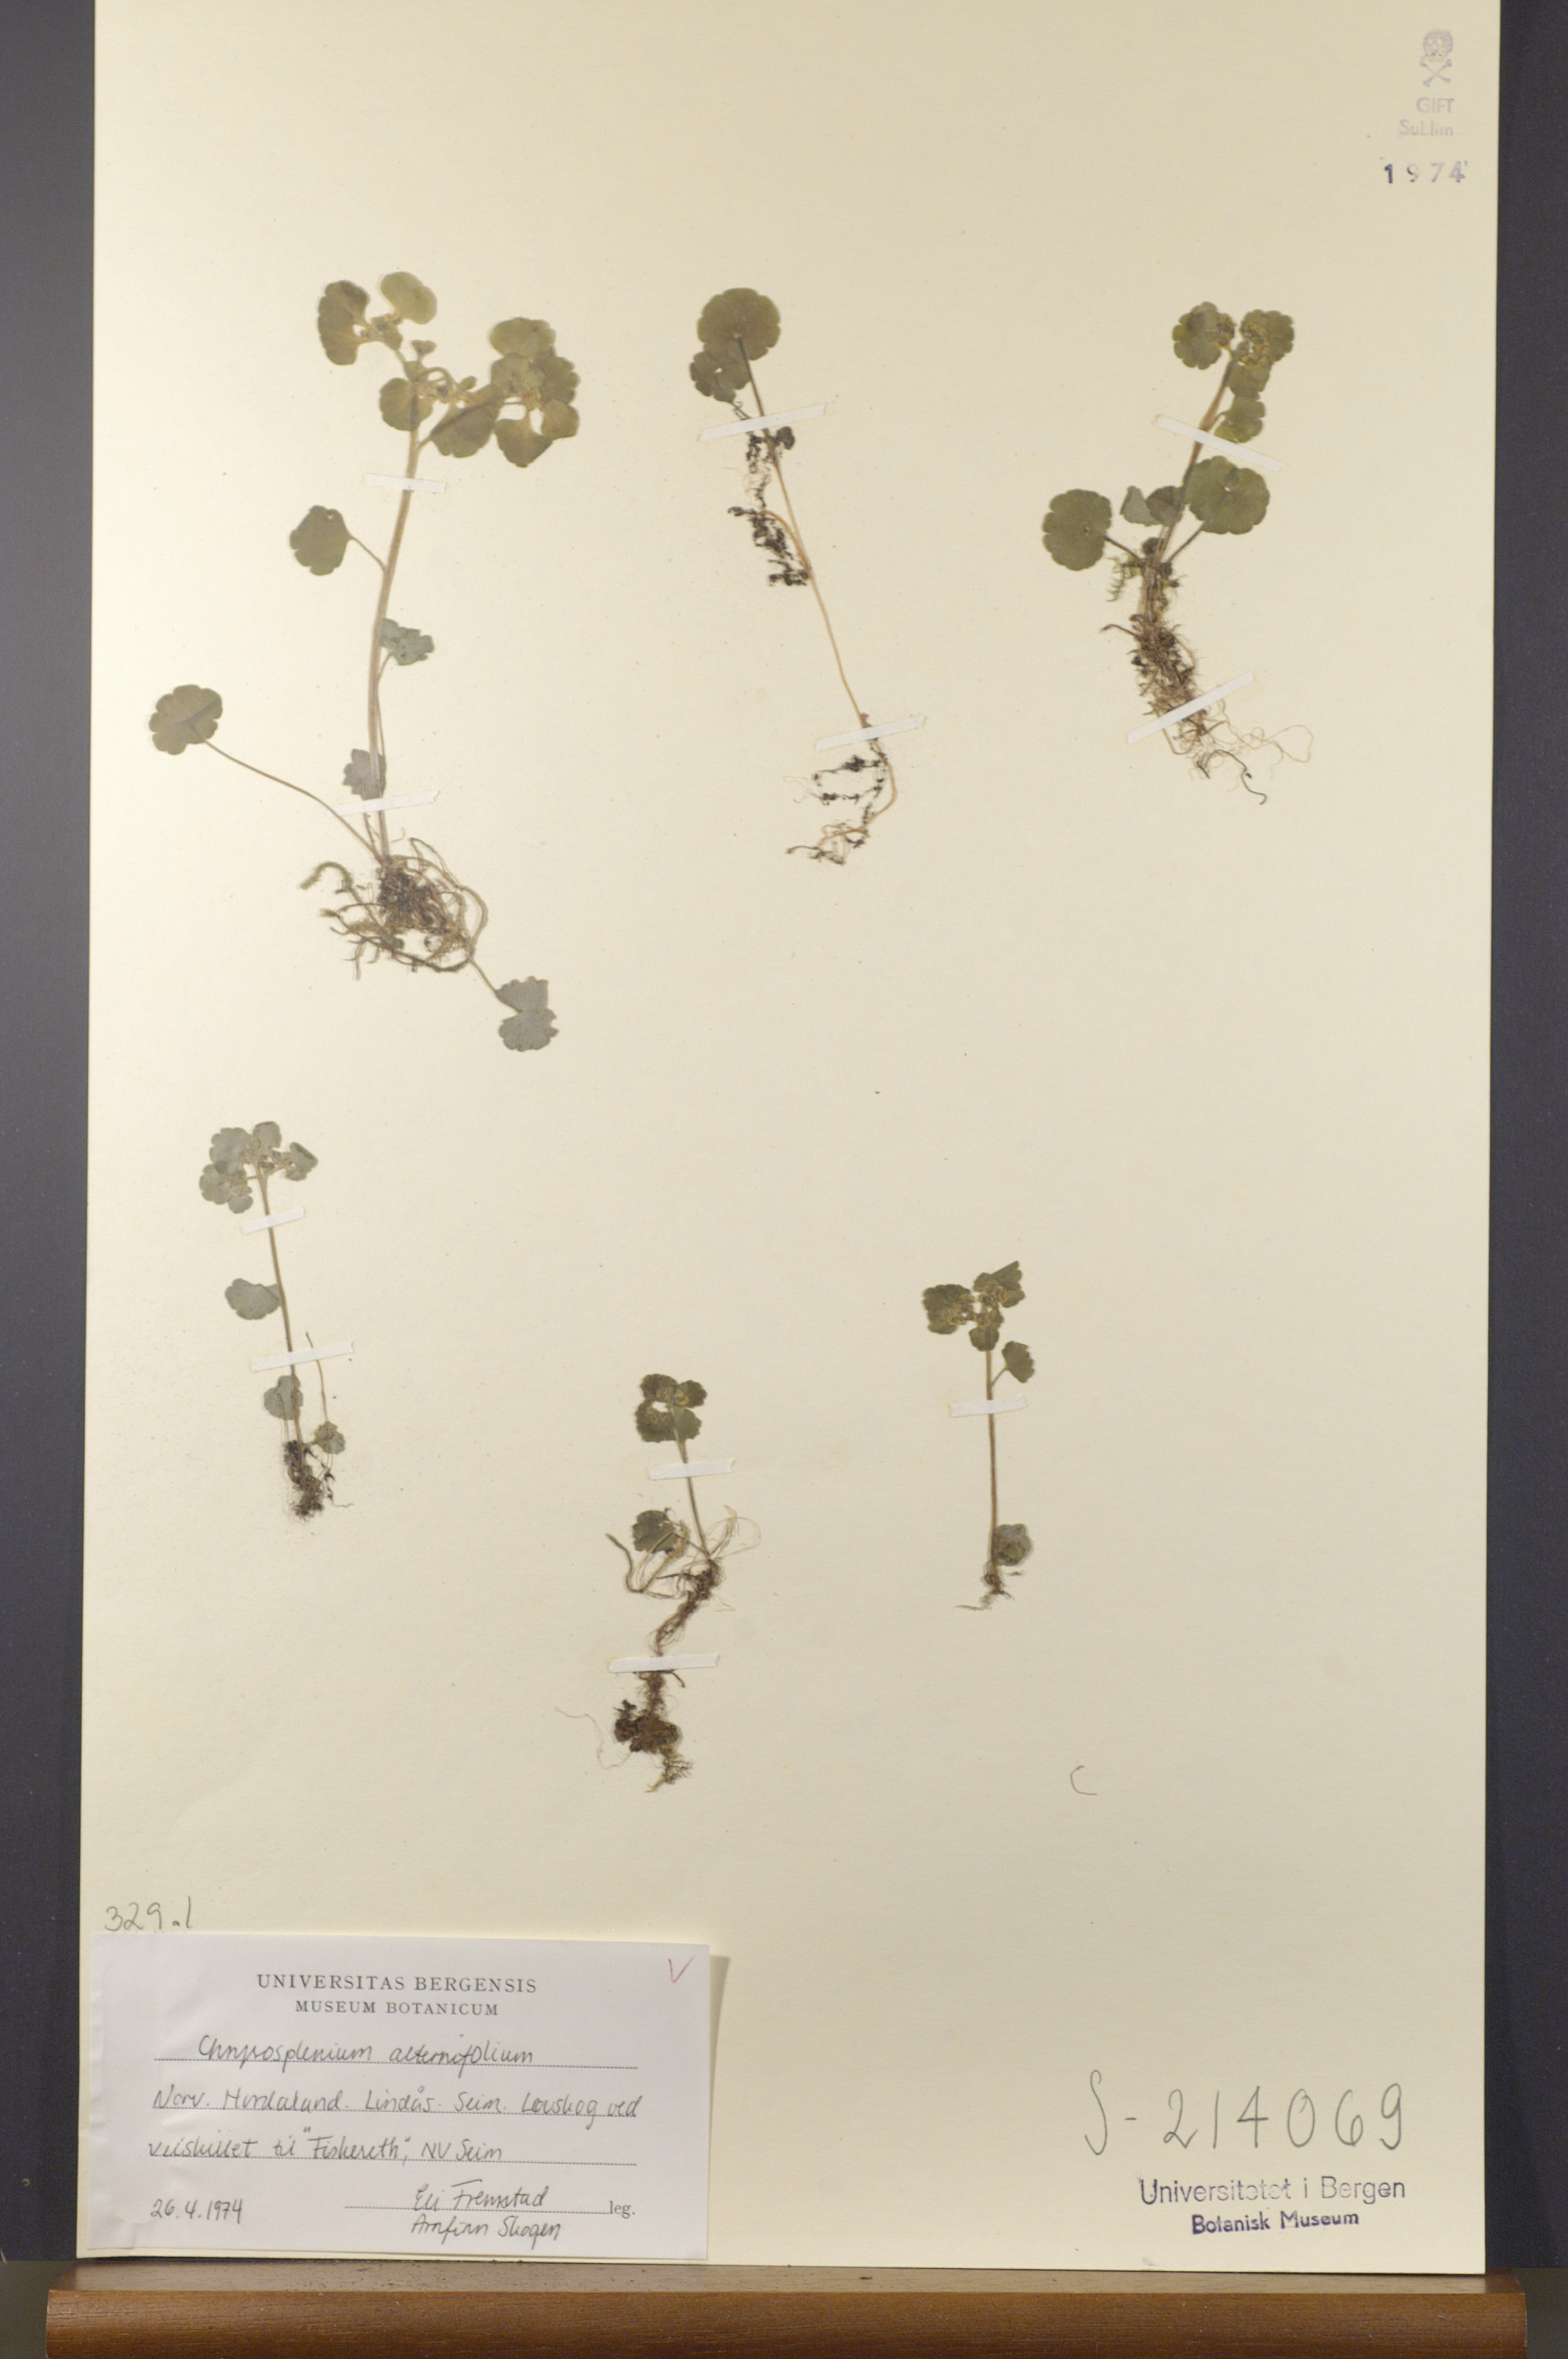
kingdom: Plantae
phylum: Tracheophyta
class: Magnoliopsida
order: Saxifragales
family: Saxifragaceae
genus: Chrysosplenium
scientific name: Chrysosplenium alternifolium
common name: Alternate-leaved golden-saxifrage
